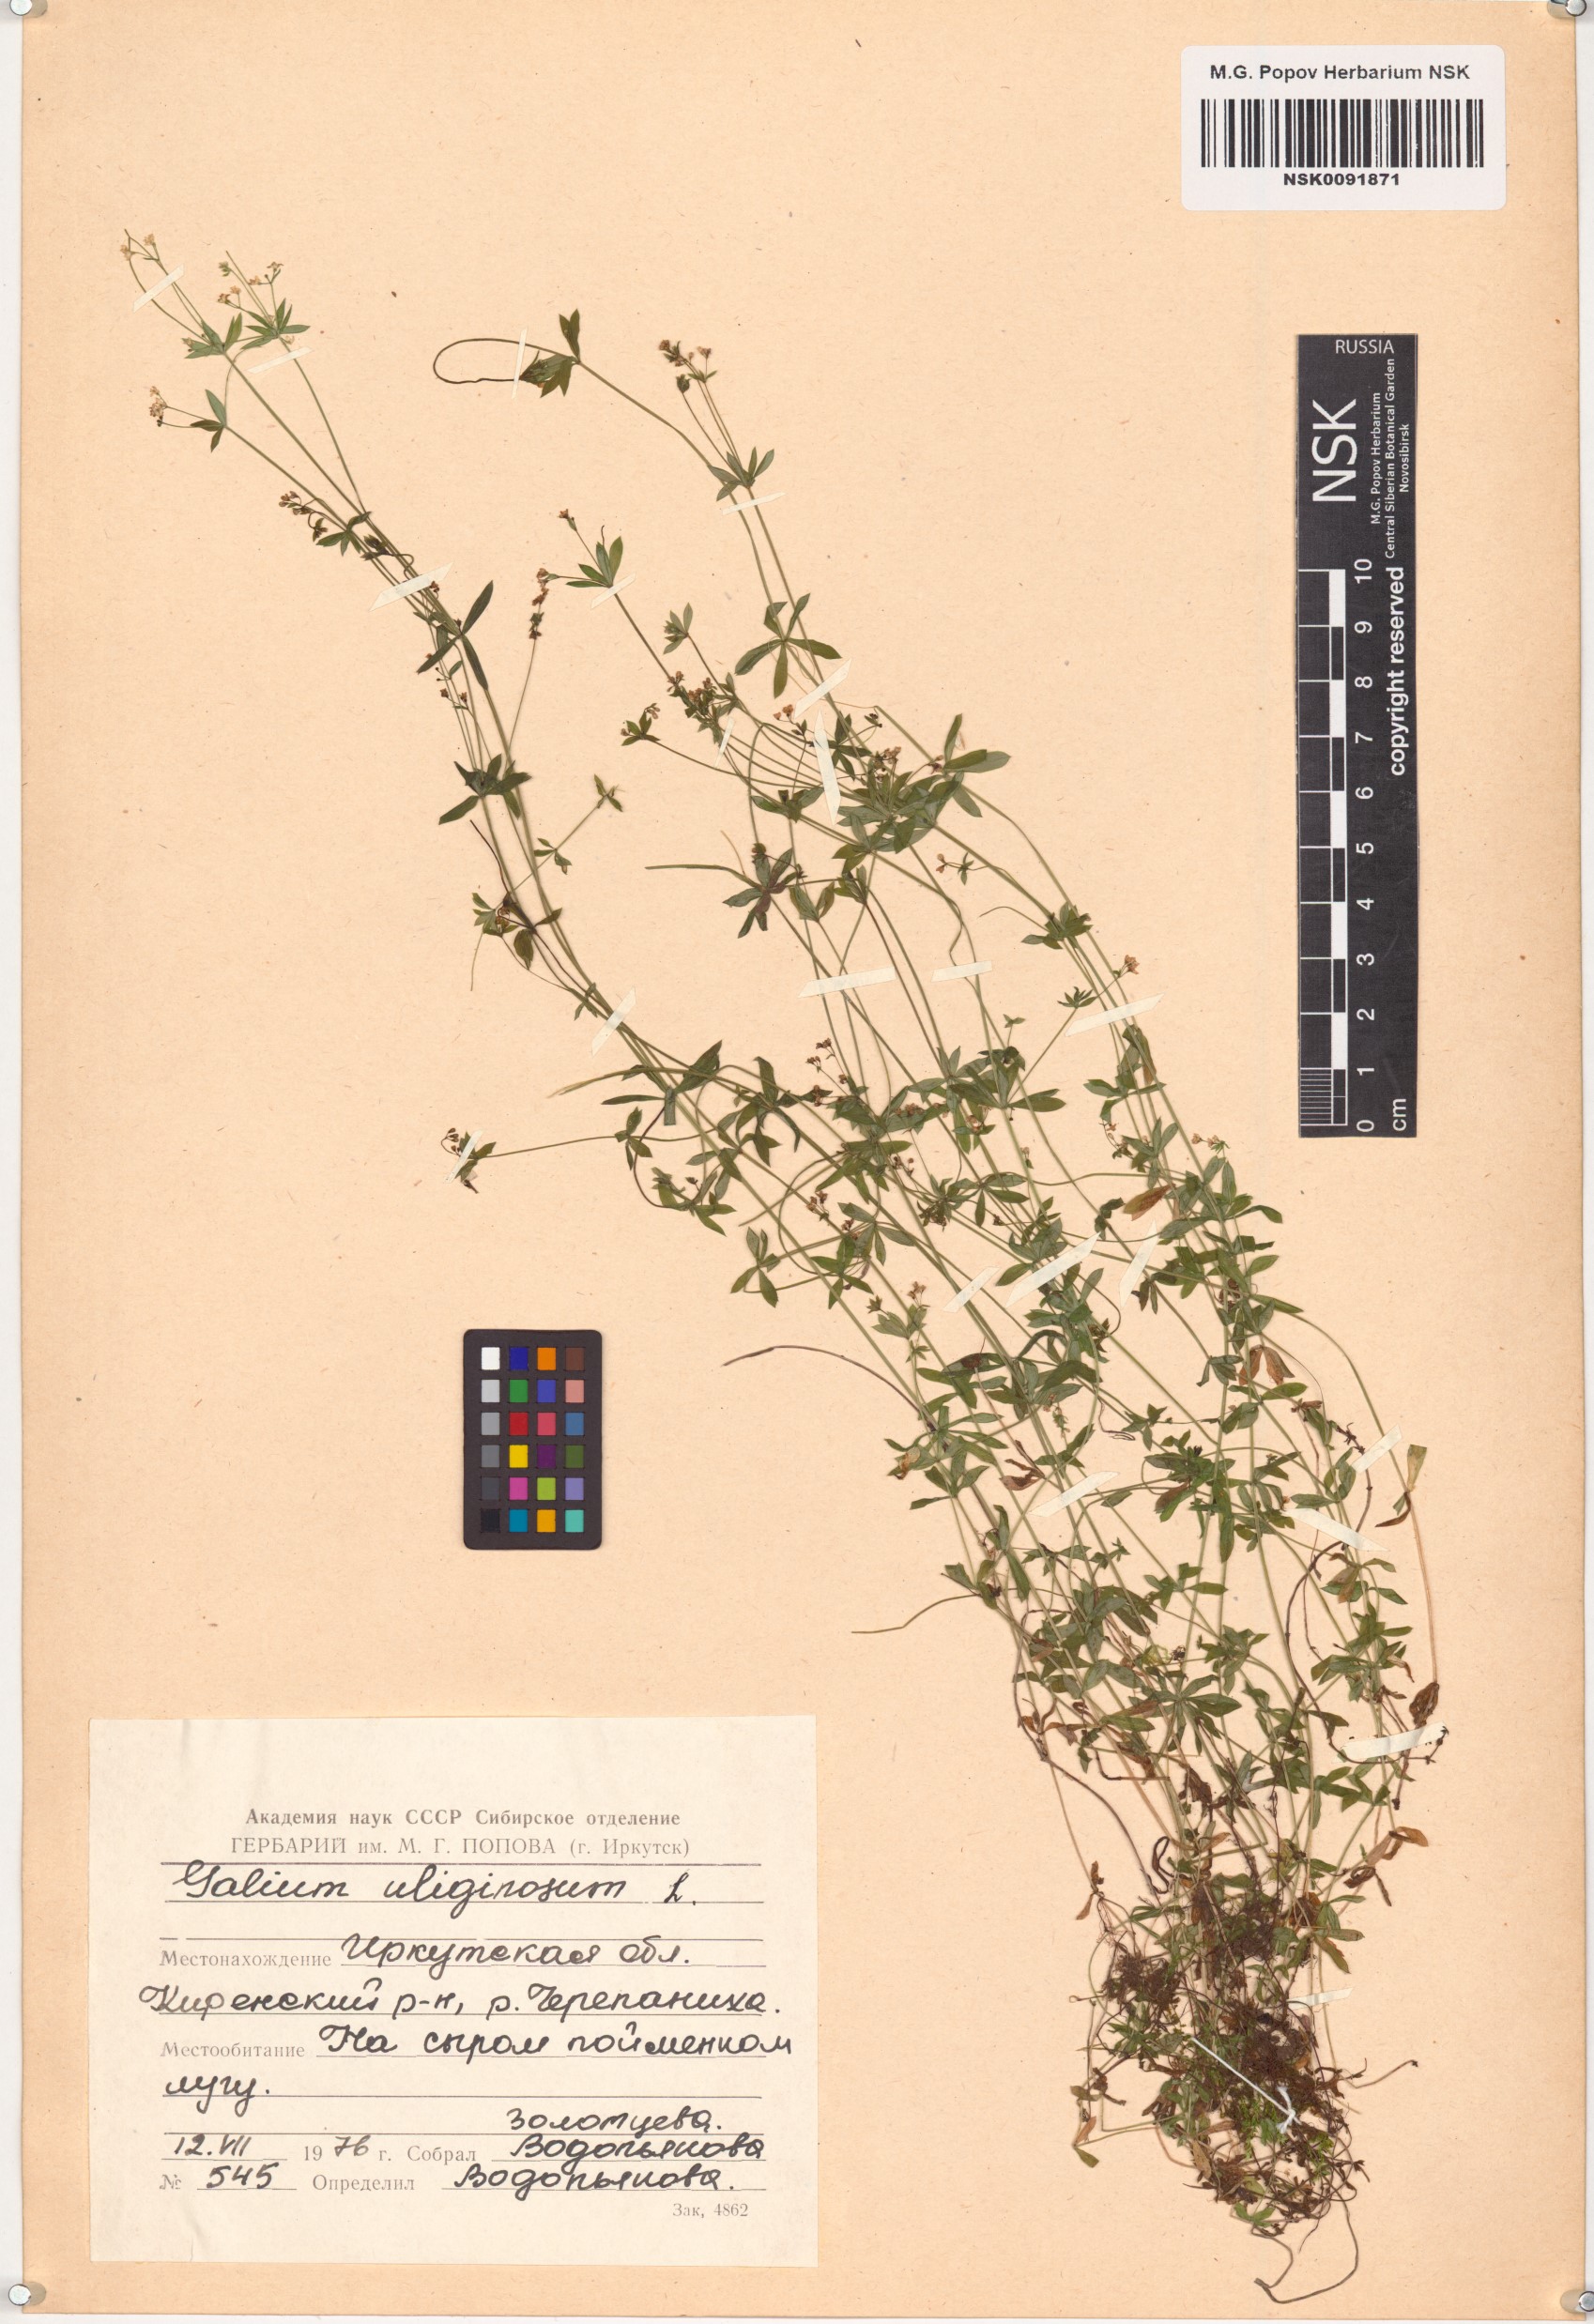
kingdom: Plantae
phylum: Tracheophyta
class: Magnoliopsida
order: Gentianales
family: Rubiaceae
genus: Galium
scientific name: Galium uliginosum
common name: Fen bedstraw
